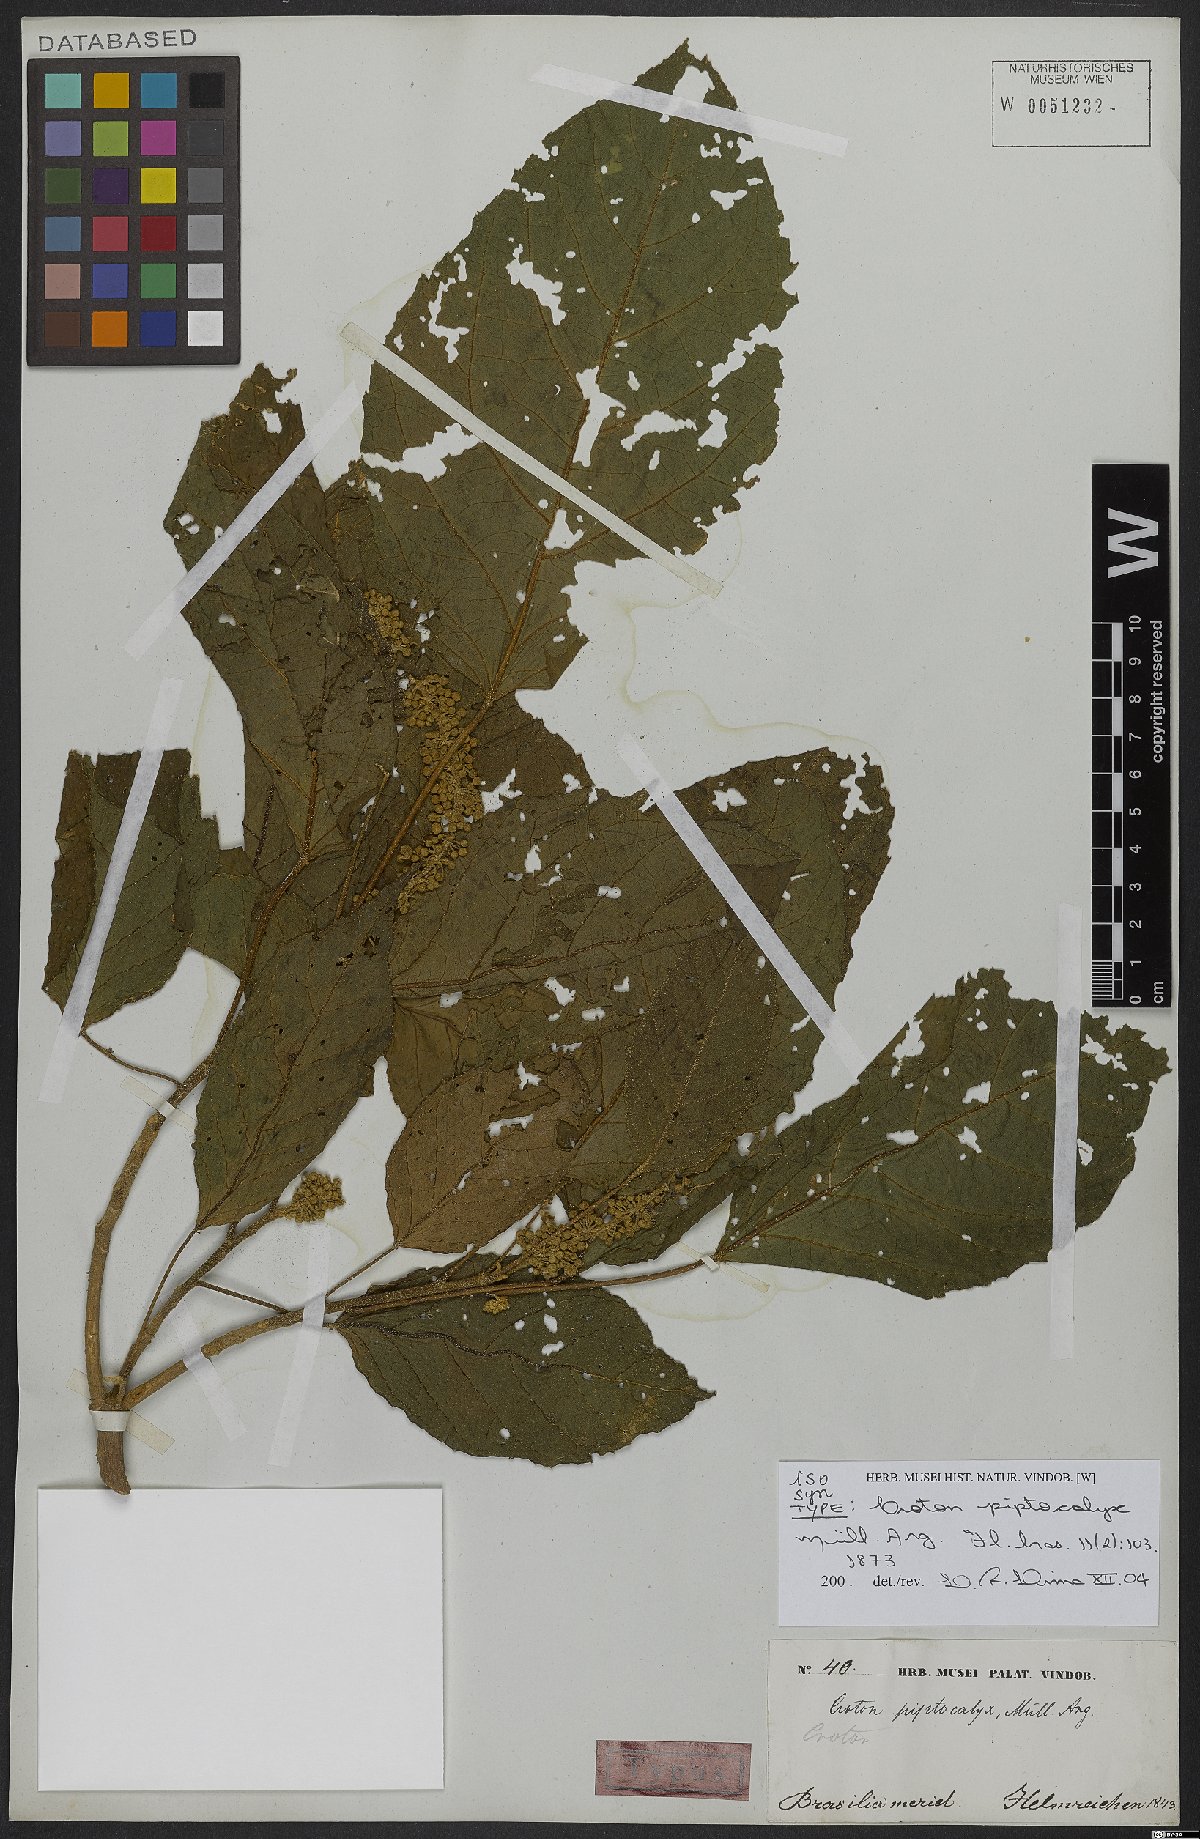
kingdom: Plantae
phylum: Tracheophyta
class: Magnoliopsida
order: Malpighiales
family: Euphorbiaceae
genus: Croton
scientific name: Croton piptocalyx
